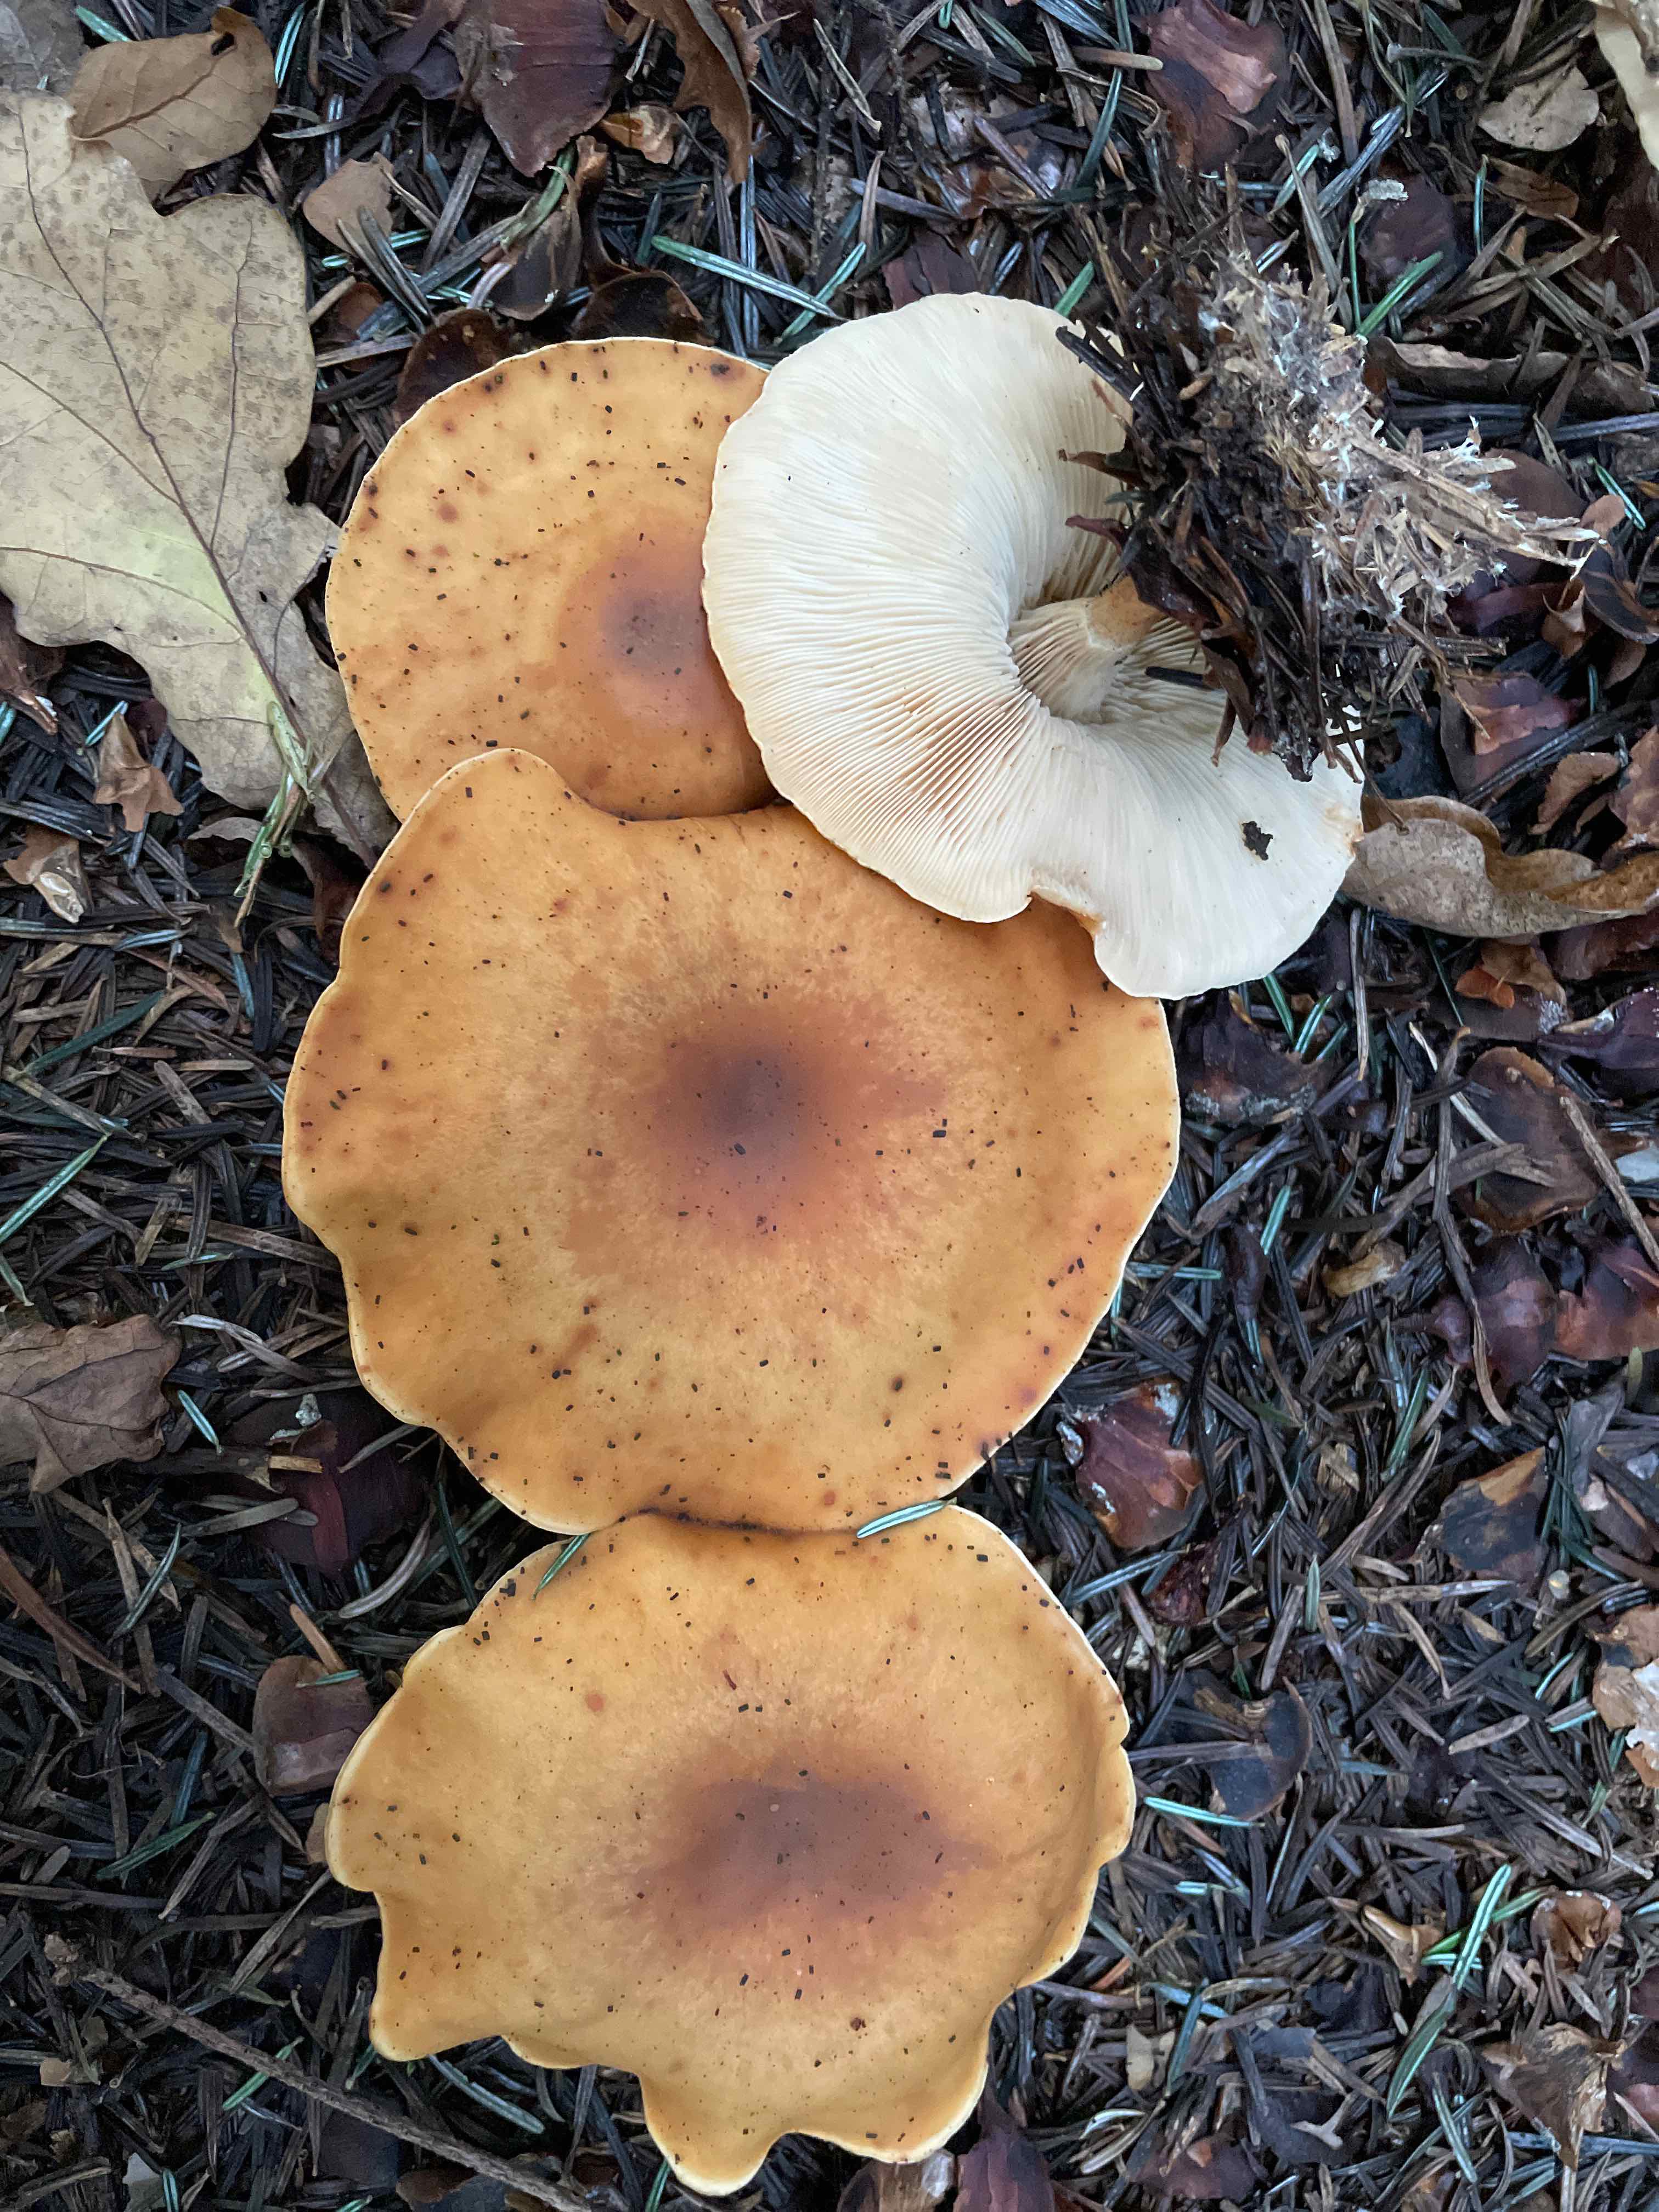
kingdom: Fungi
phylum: Basidiomycota
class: Agaricomycetes
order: Agaricales
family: Tricholomataceae
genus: Paralepista
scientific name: Paralepista flaccida
